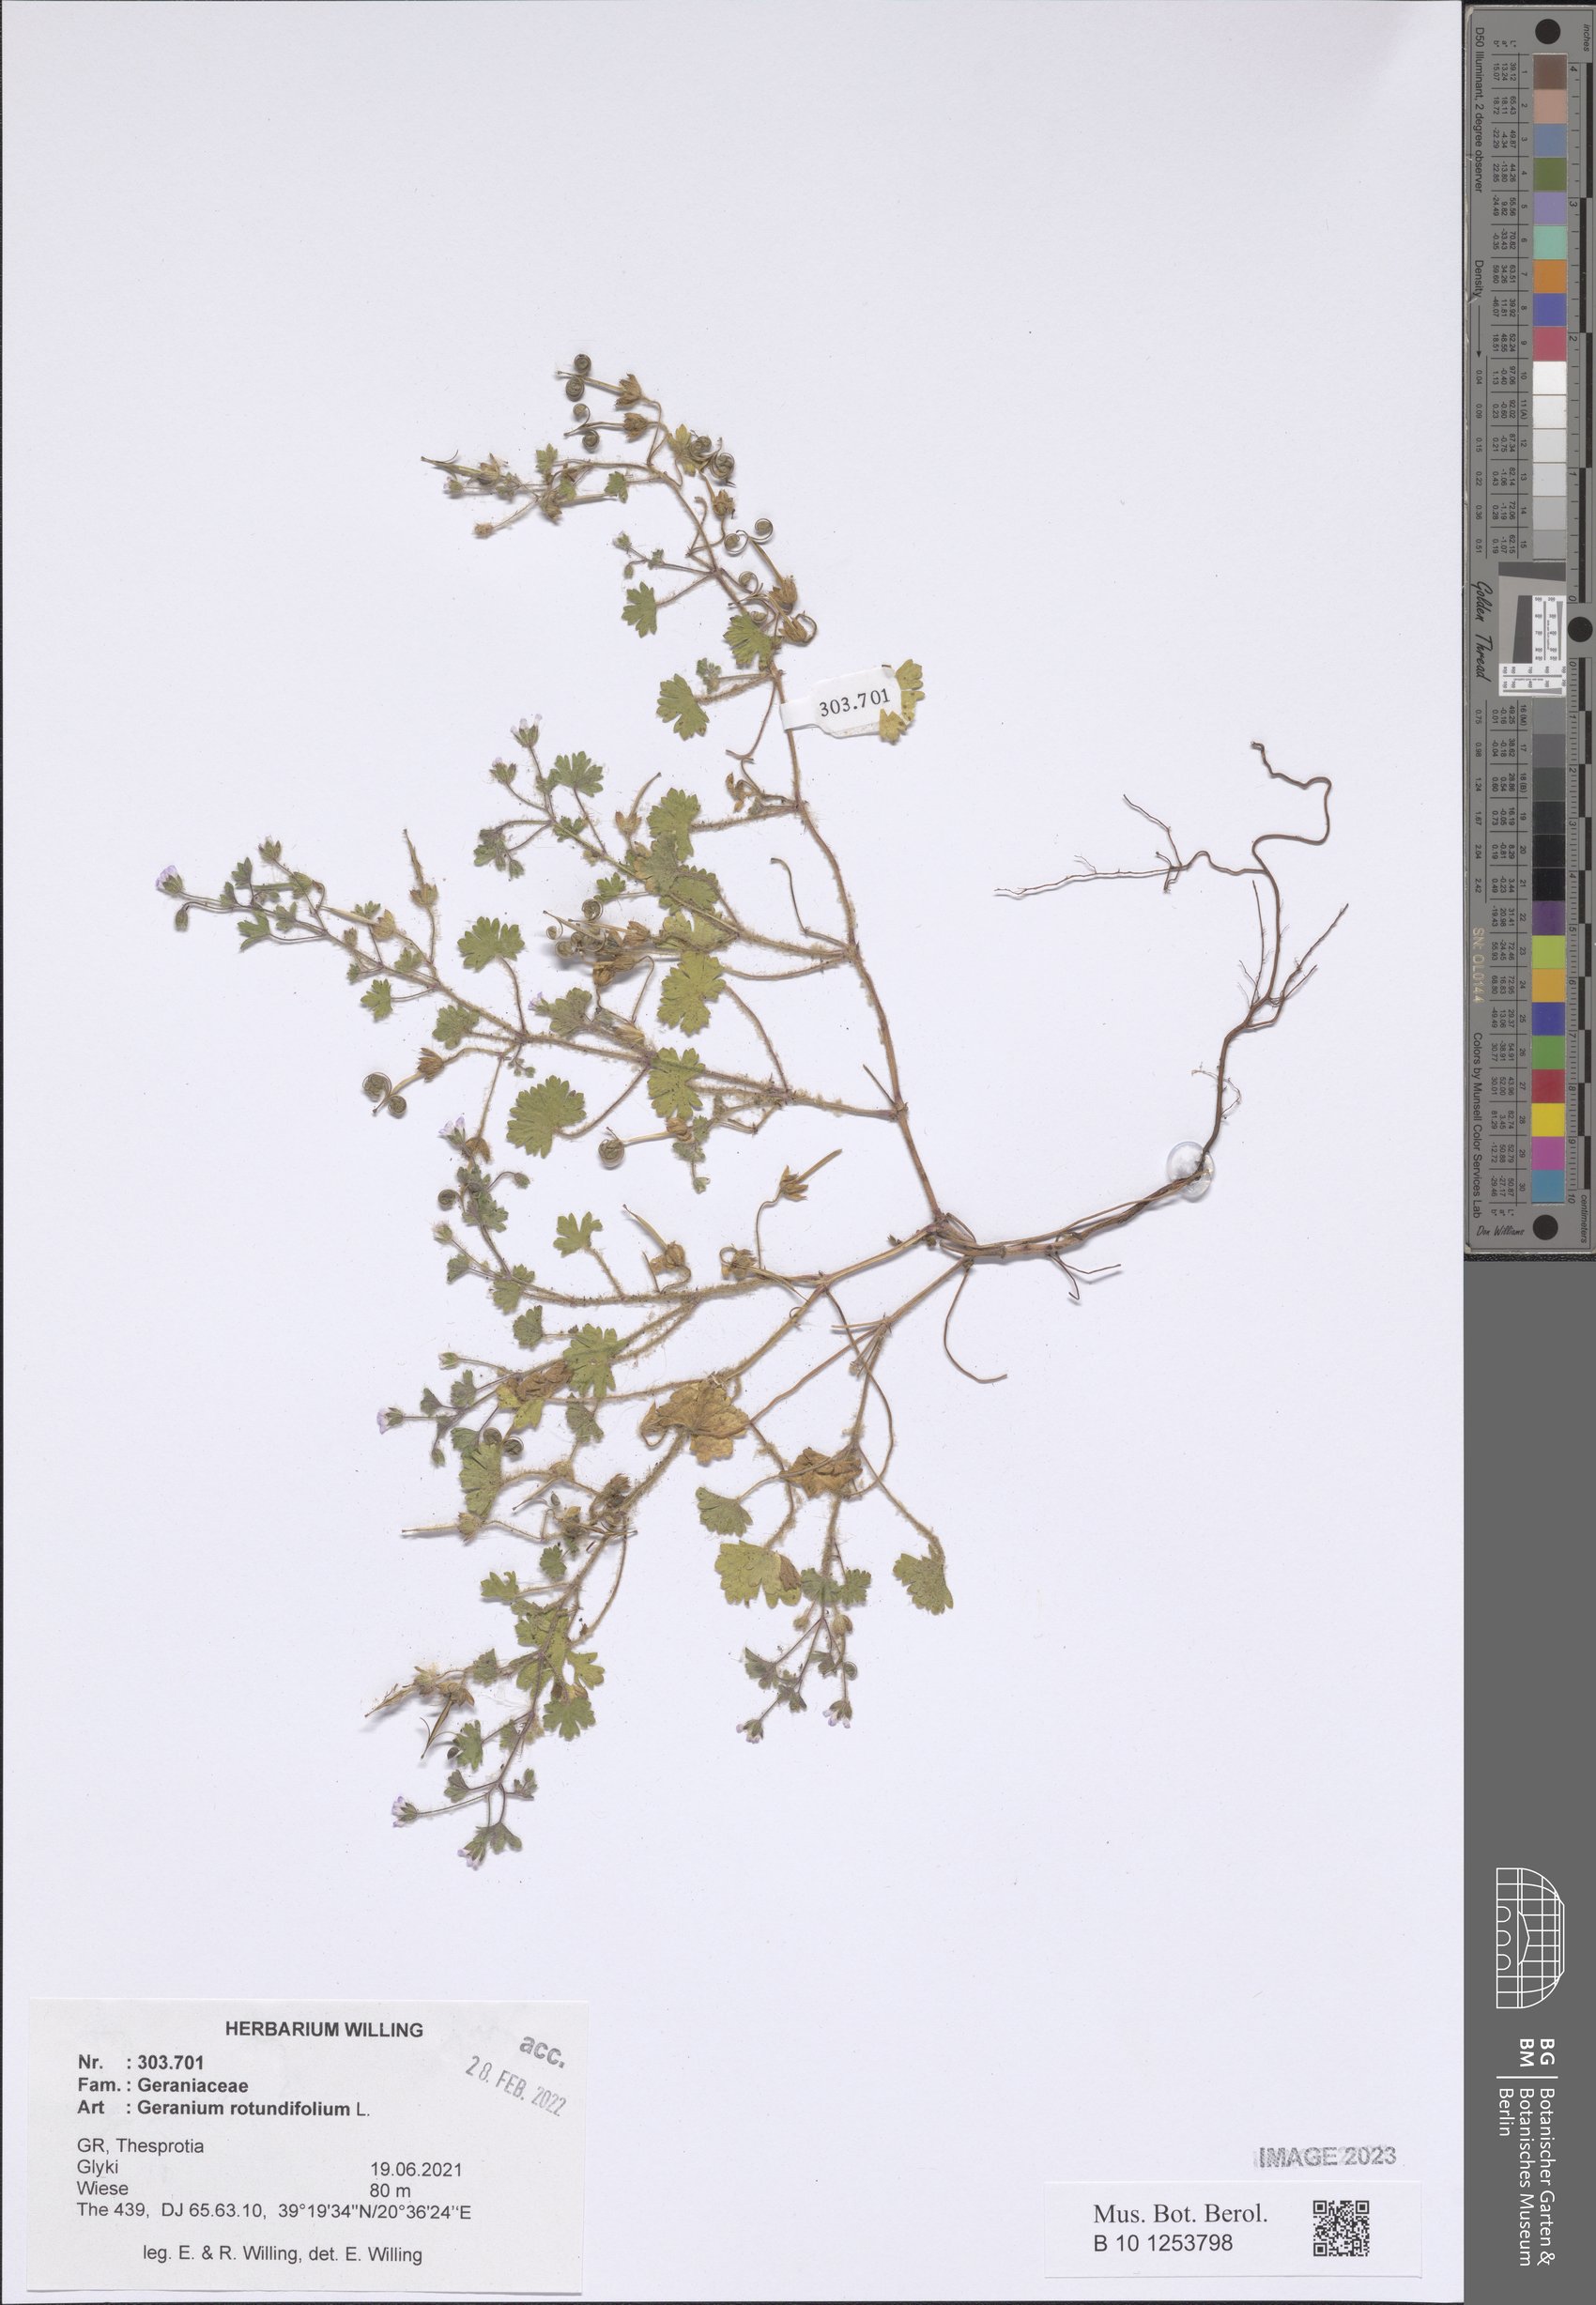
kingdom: Plantae
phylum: Tracheophyta
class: Magnoliopsida
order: Geraniales
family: Geraniaceae
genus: Geranium
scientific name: Geranium rotundifolium
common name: Round-leaved crane's-bill
